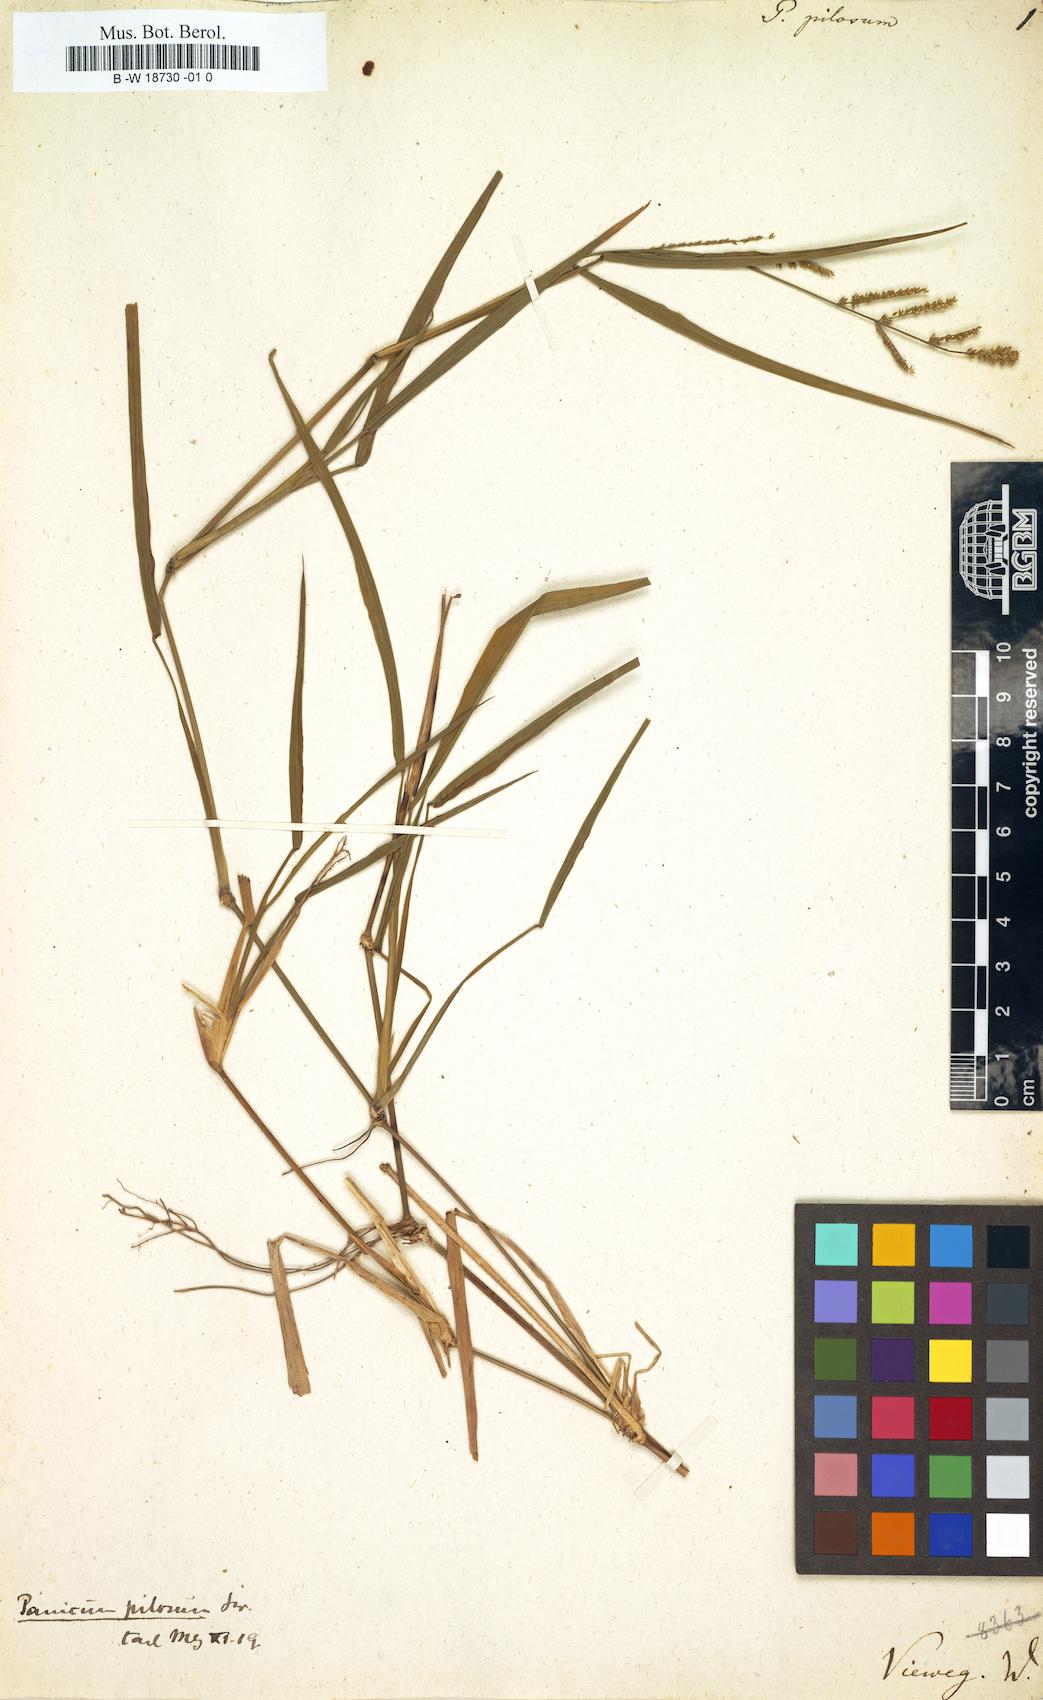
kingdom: Plantae
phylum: Tracheophyta
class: Liliopsida
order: Poales
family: Poaceae
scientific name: Poaceae
